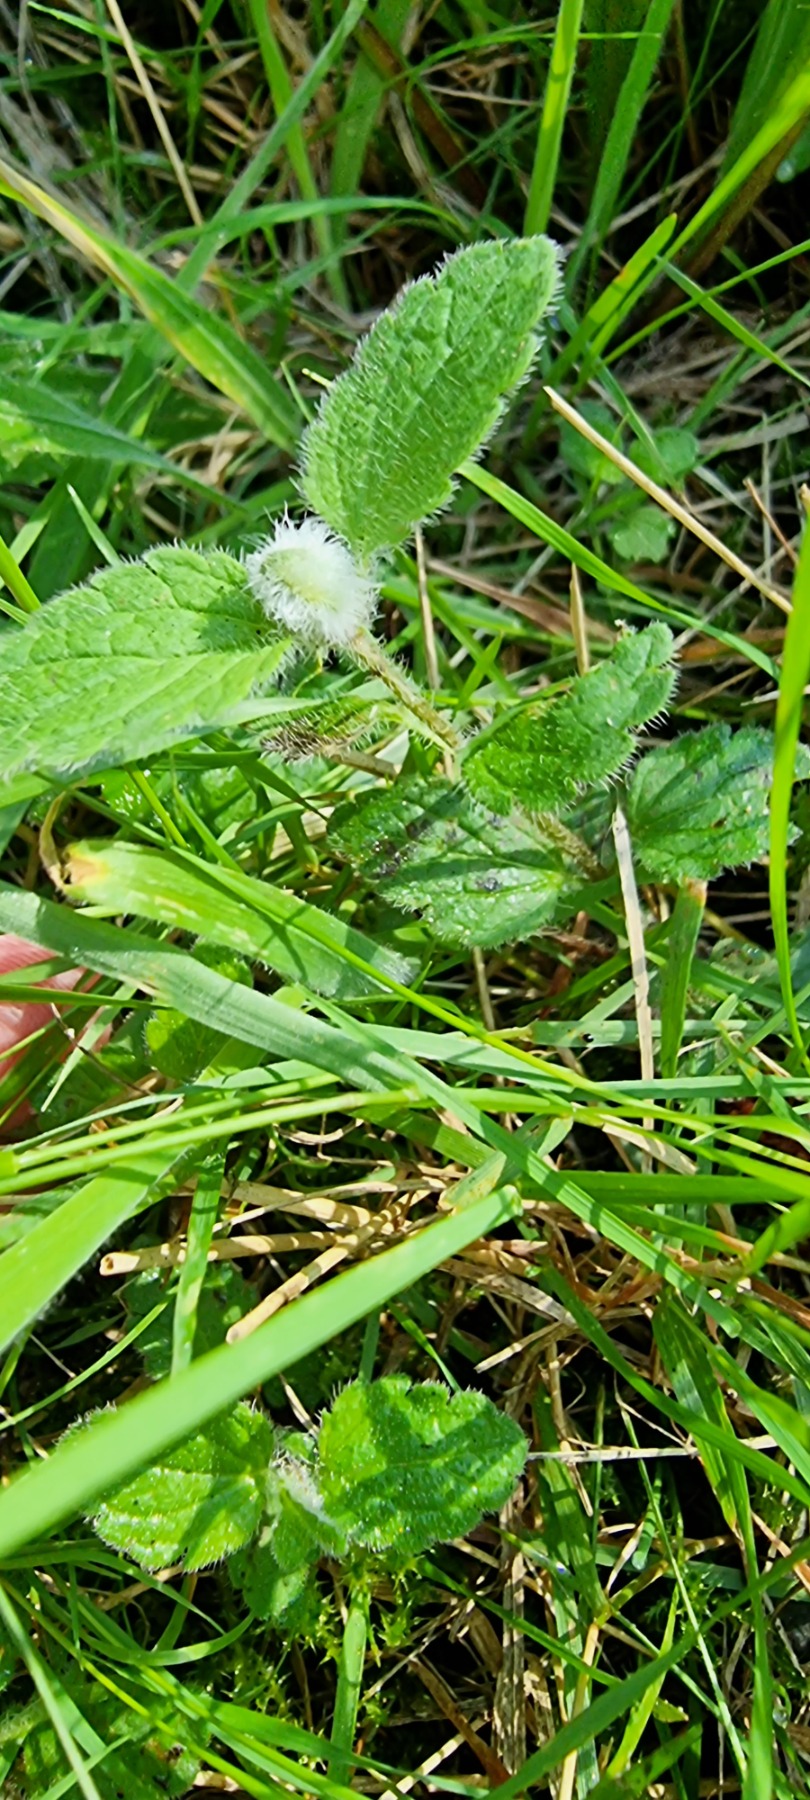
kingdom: Animalia
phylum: Arthropoda
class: Insecta
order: Diptera
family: Cecidomyiidae
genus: Jaapiella
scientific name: Jaapiella veronicae
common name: Ærenprisgalmyg
